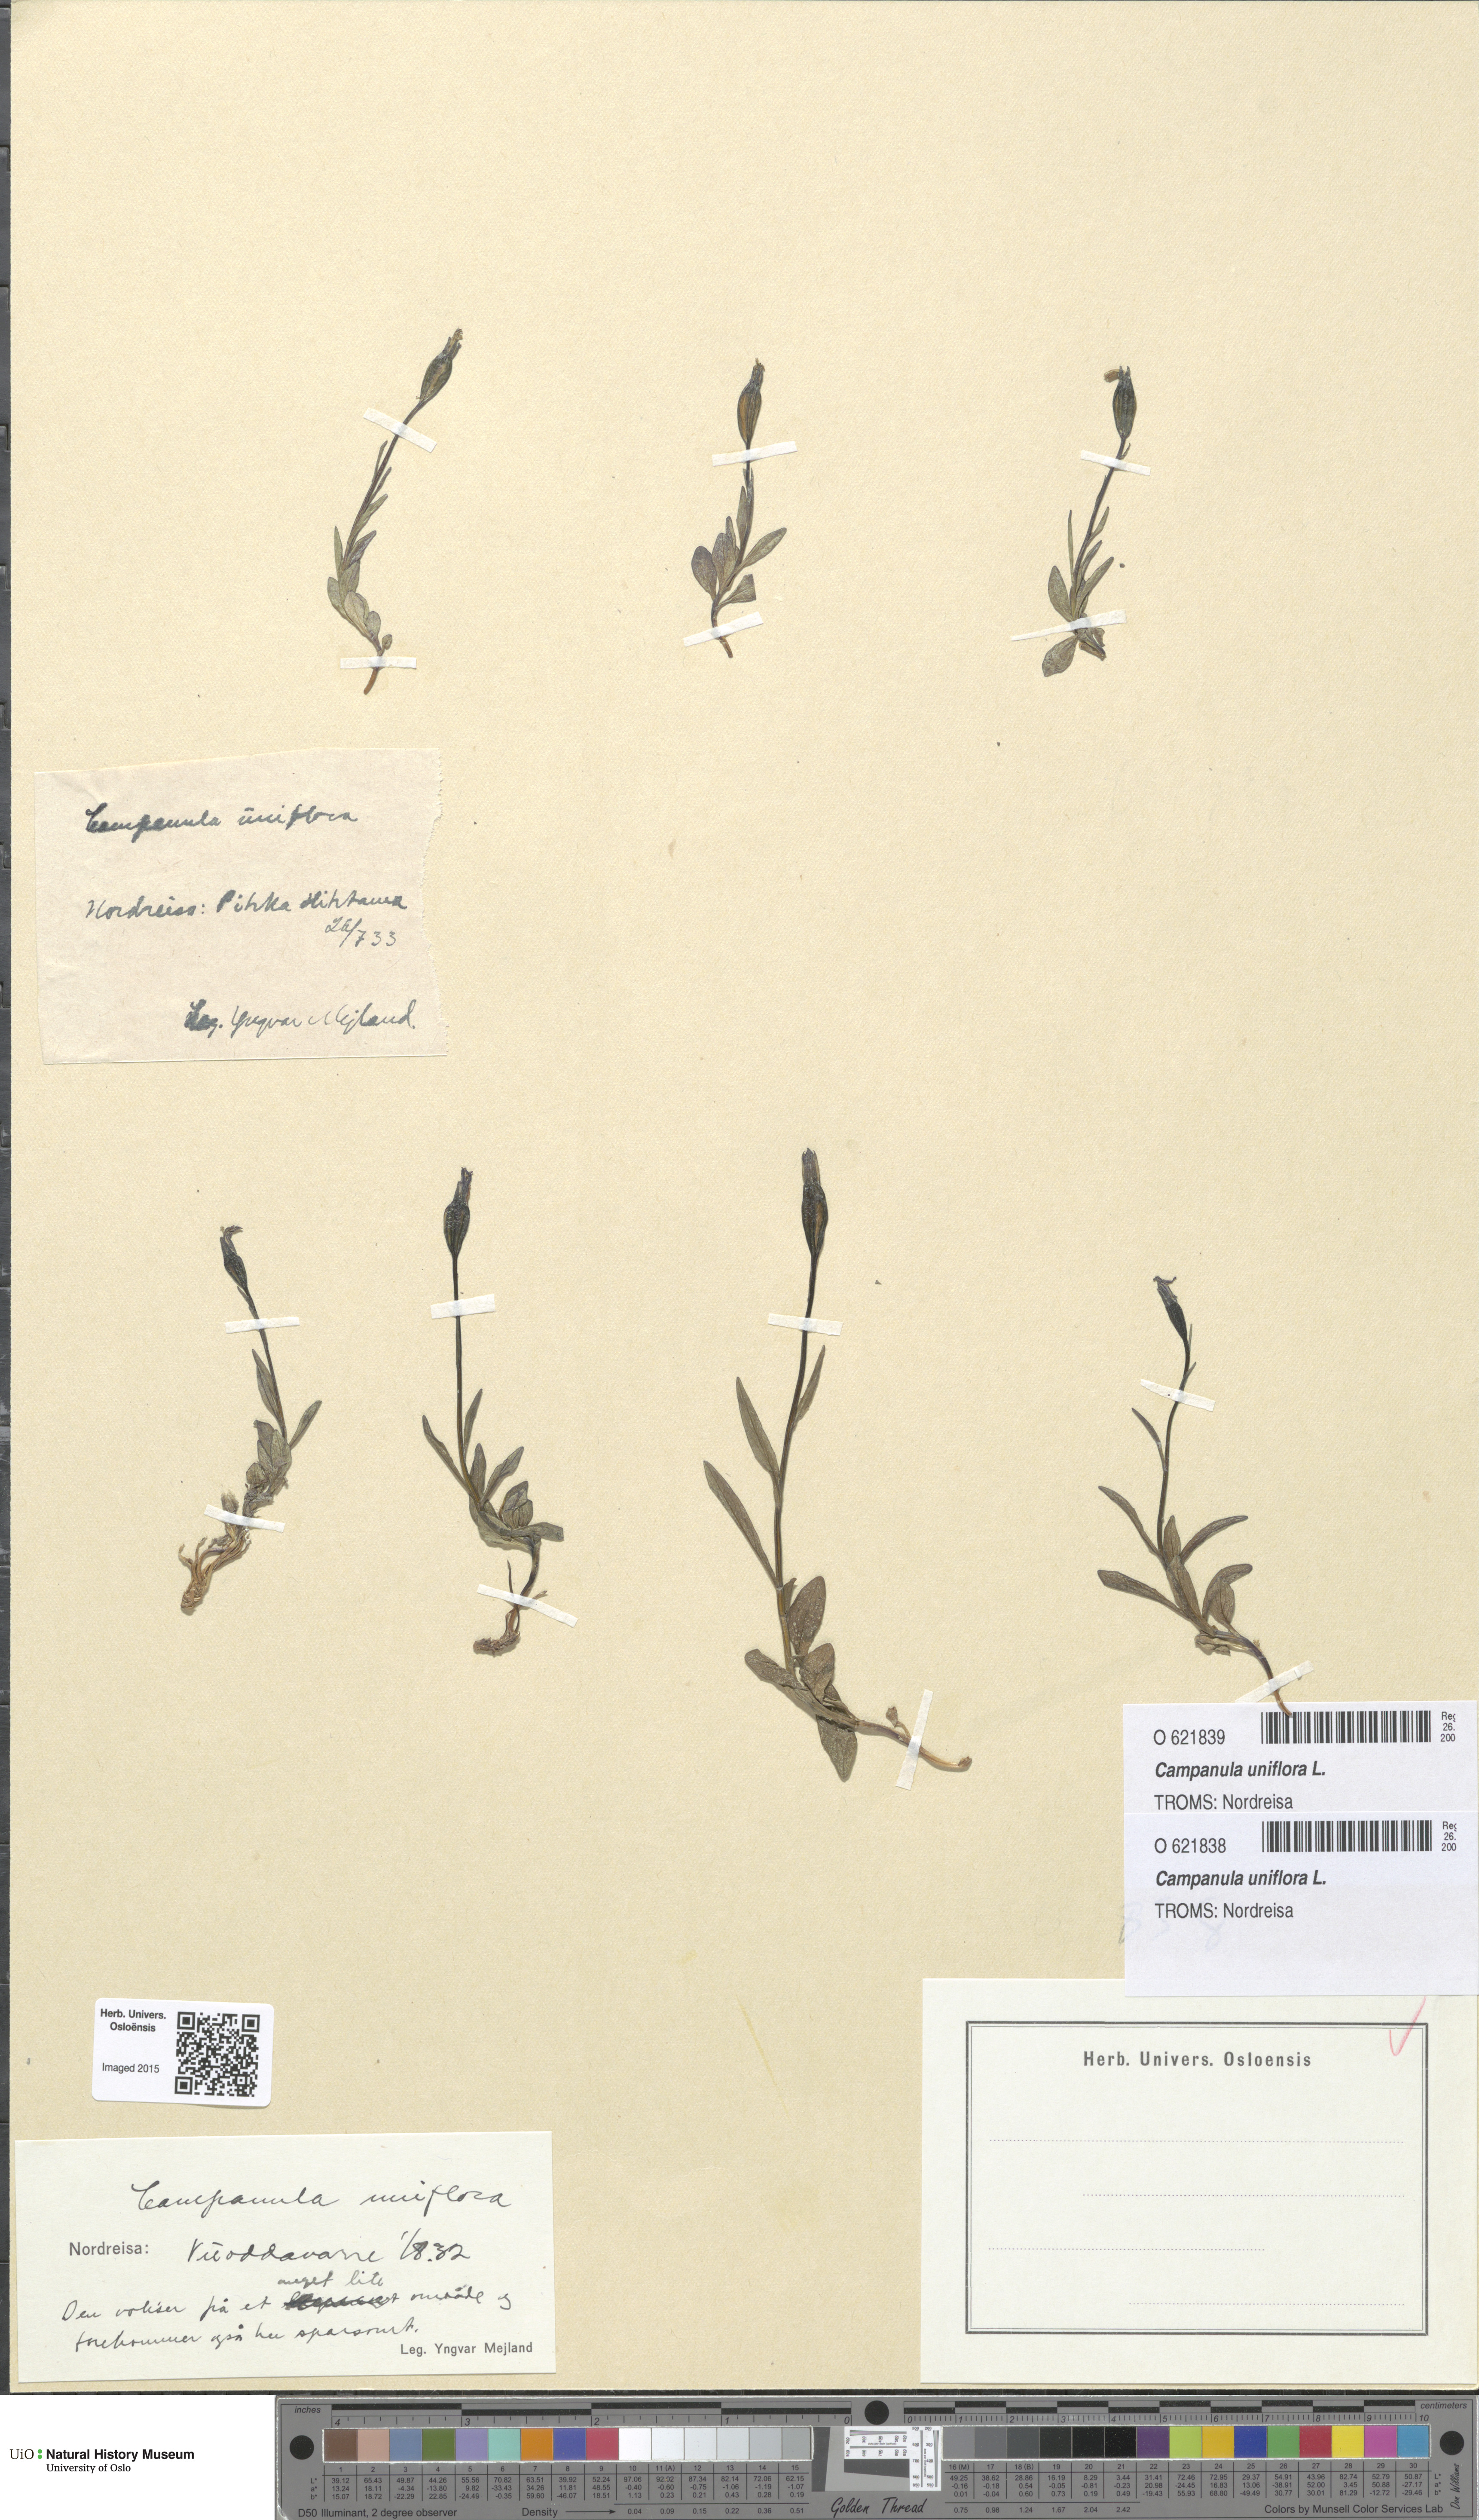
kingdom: Plantae
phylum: Tracheophyta
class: Magnoliopsida
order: Asterales
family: Campanulaceae
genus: Melanocalyx
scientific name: Melanocalyx uniflora
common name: Alpine harebell
